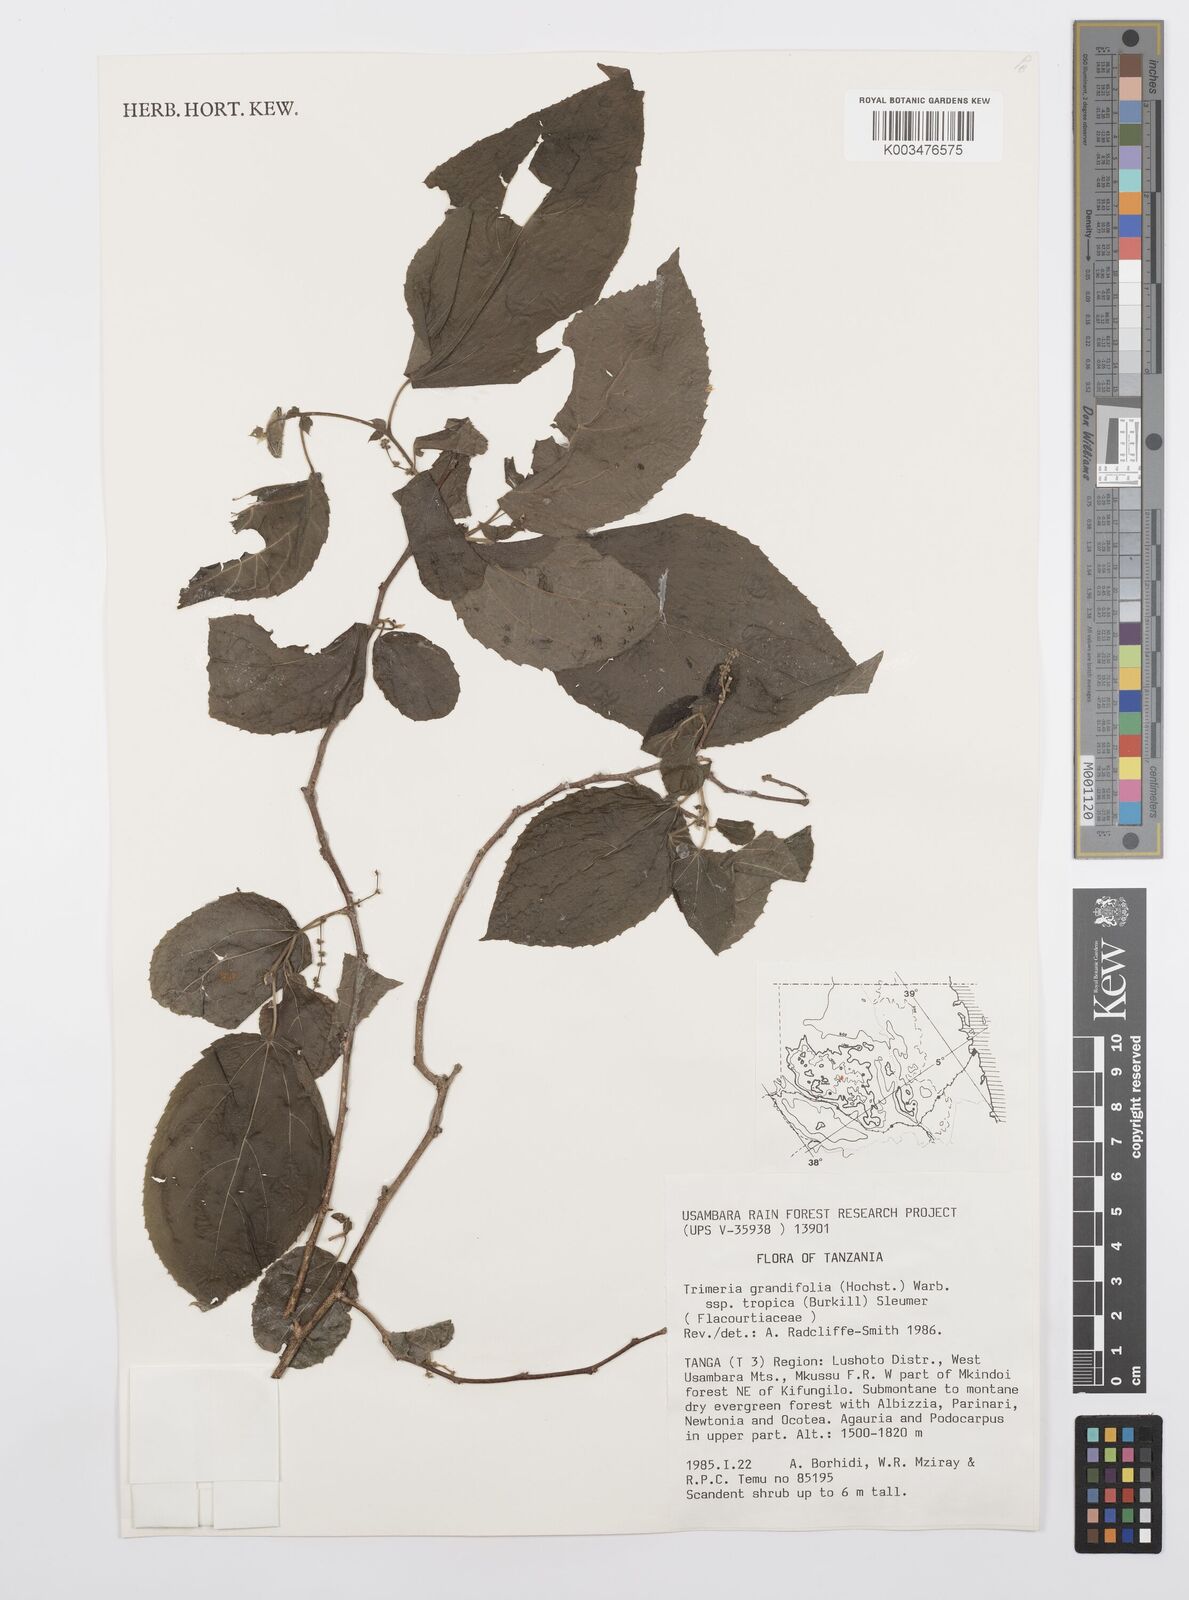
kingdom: Plantae
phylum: Tracheophyta
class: Magnoliopsida
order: Malpighiales
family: Salicaceae
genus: Trimeria
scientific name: Trimeria grandifolia
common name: Wild mulberry
